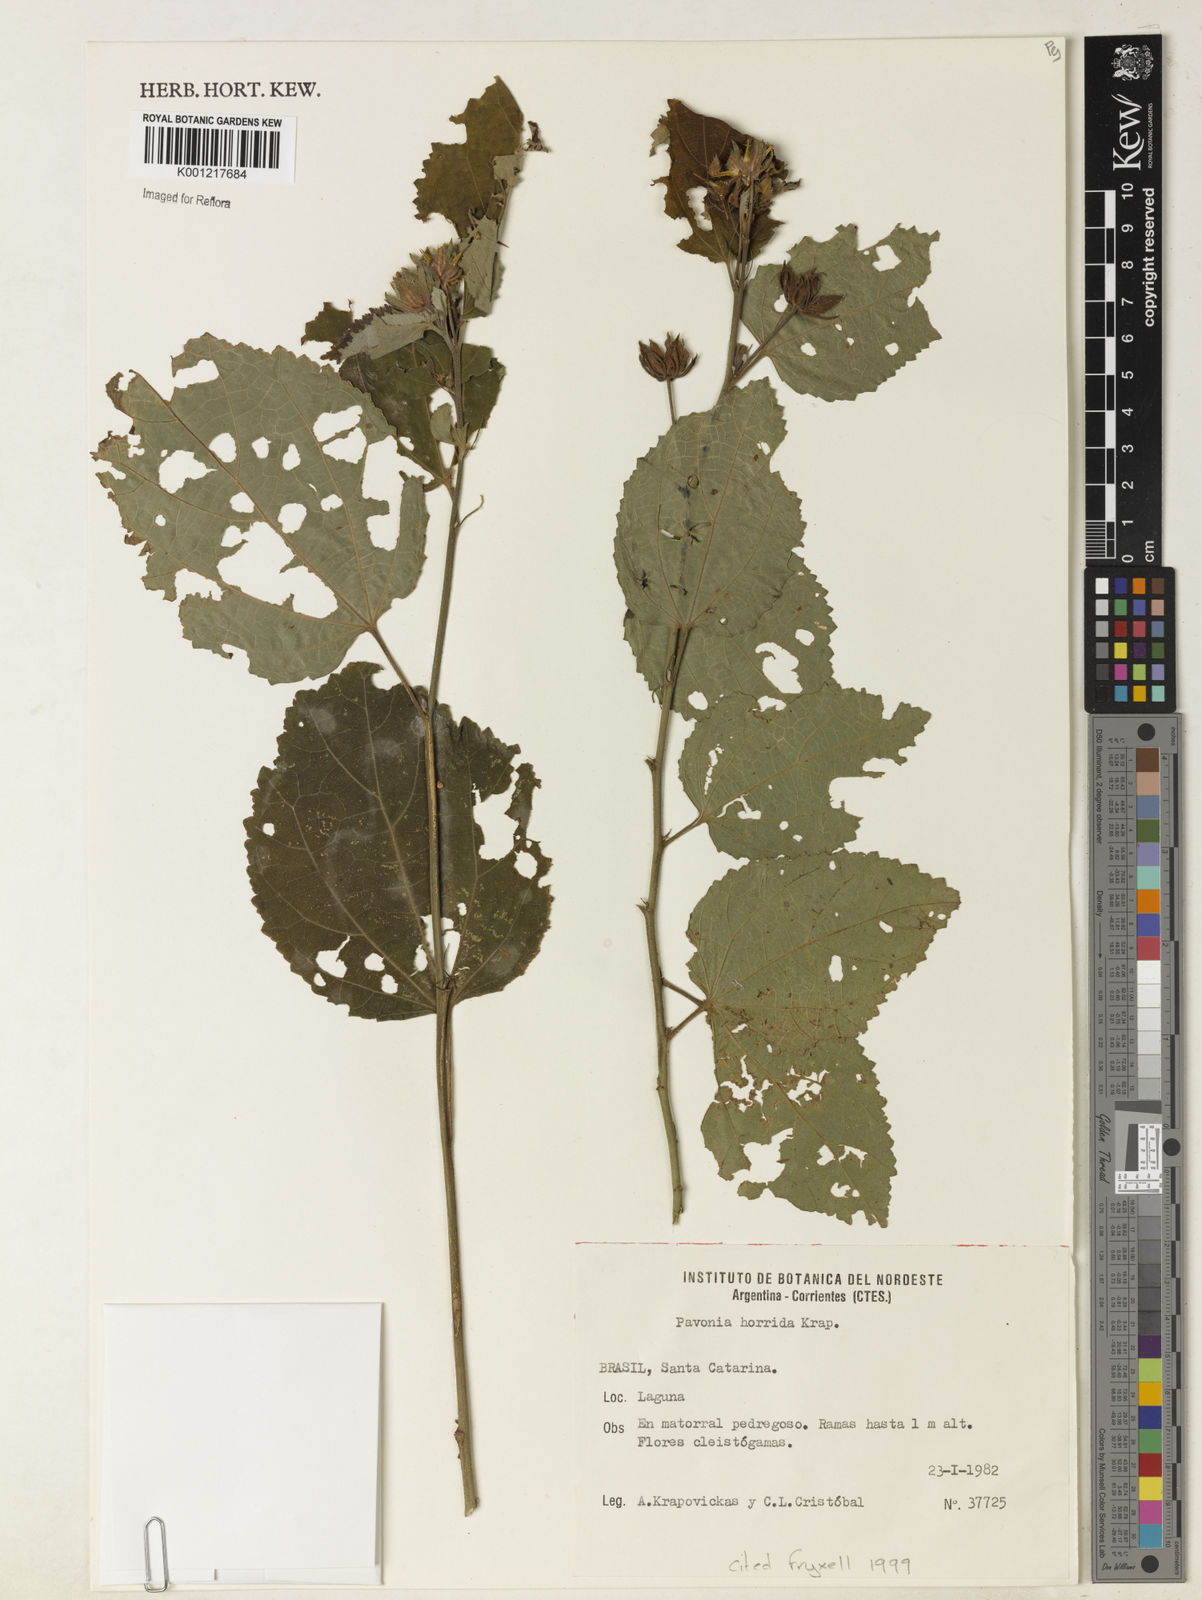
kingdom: Plantae
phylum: Tracheophyta
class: Magnoliopsida
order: Malvales
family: Malvaceae
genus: Pavonia
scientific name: Pavonia horrida
